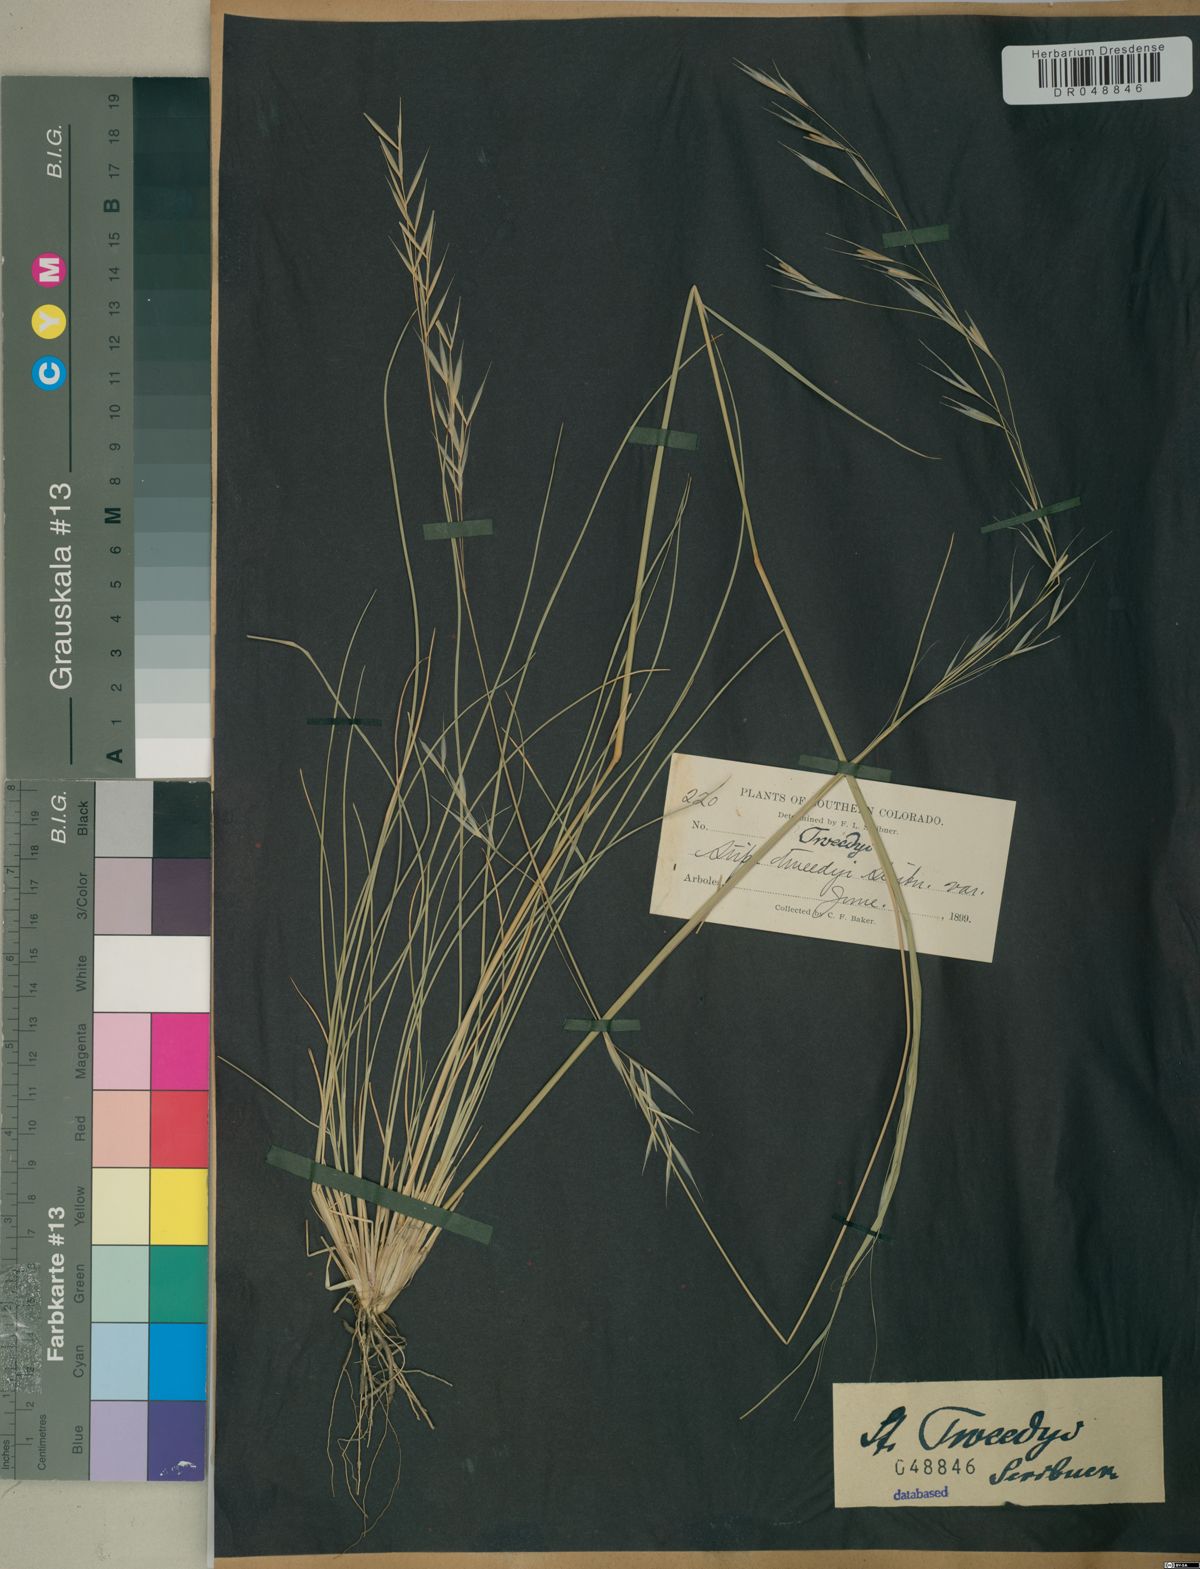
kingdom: Plantae
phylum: Tracheophyta
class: Liliopsida
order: Poales
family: Poaceae
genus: Hesperostipa
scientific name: Hesperostipa comata
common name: Needle-and-thread grass
